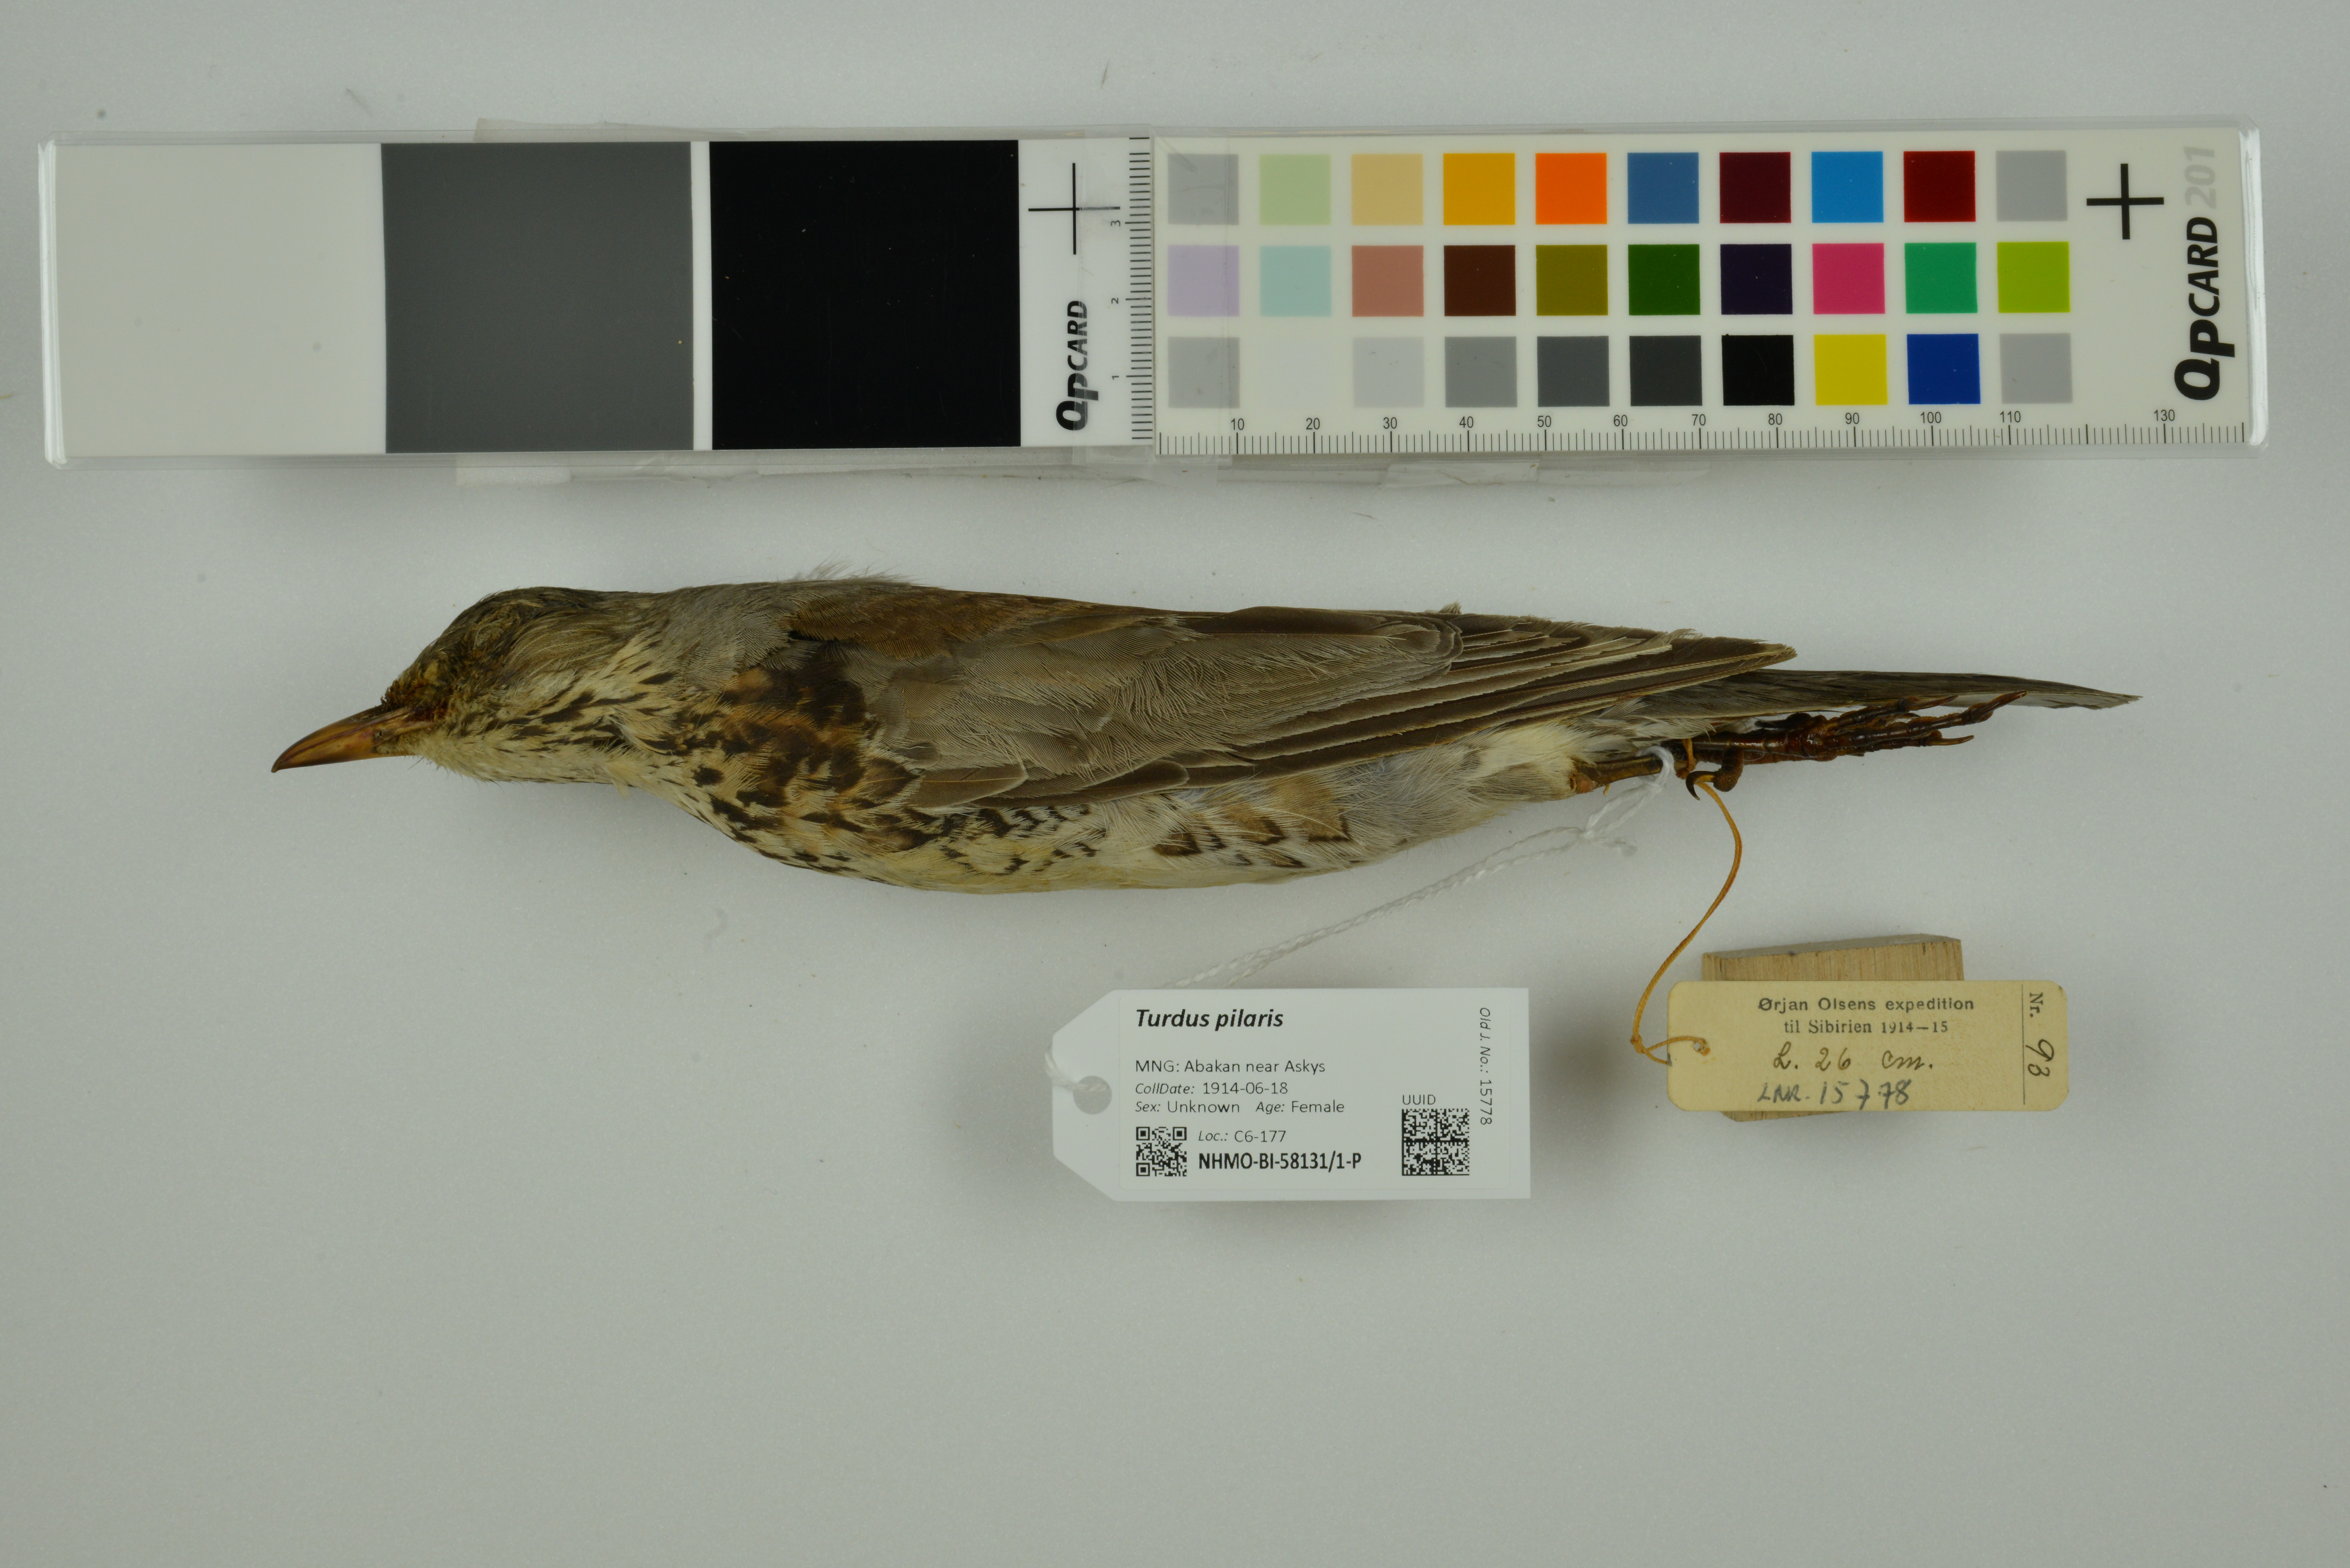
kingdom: Animalia
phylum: Chordata
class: Aves
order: Passeriformes
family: Turdidae
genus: Turdus
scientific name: Turdus pilaris
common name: Fieldfare
